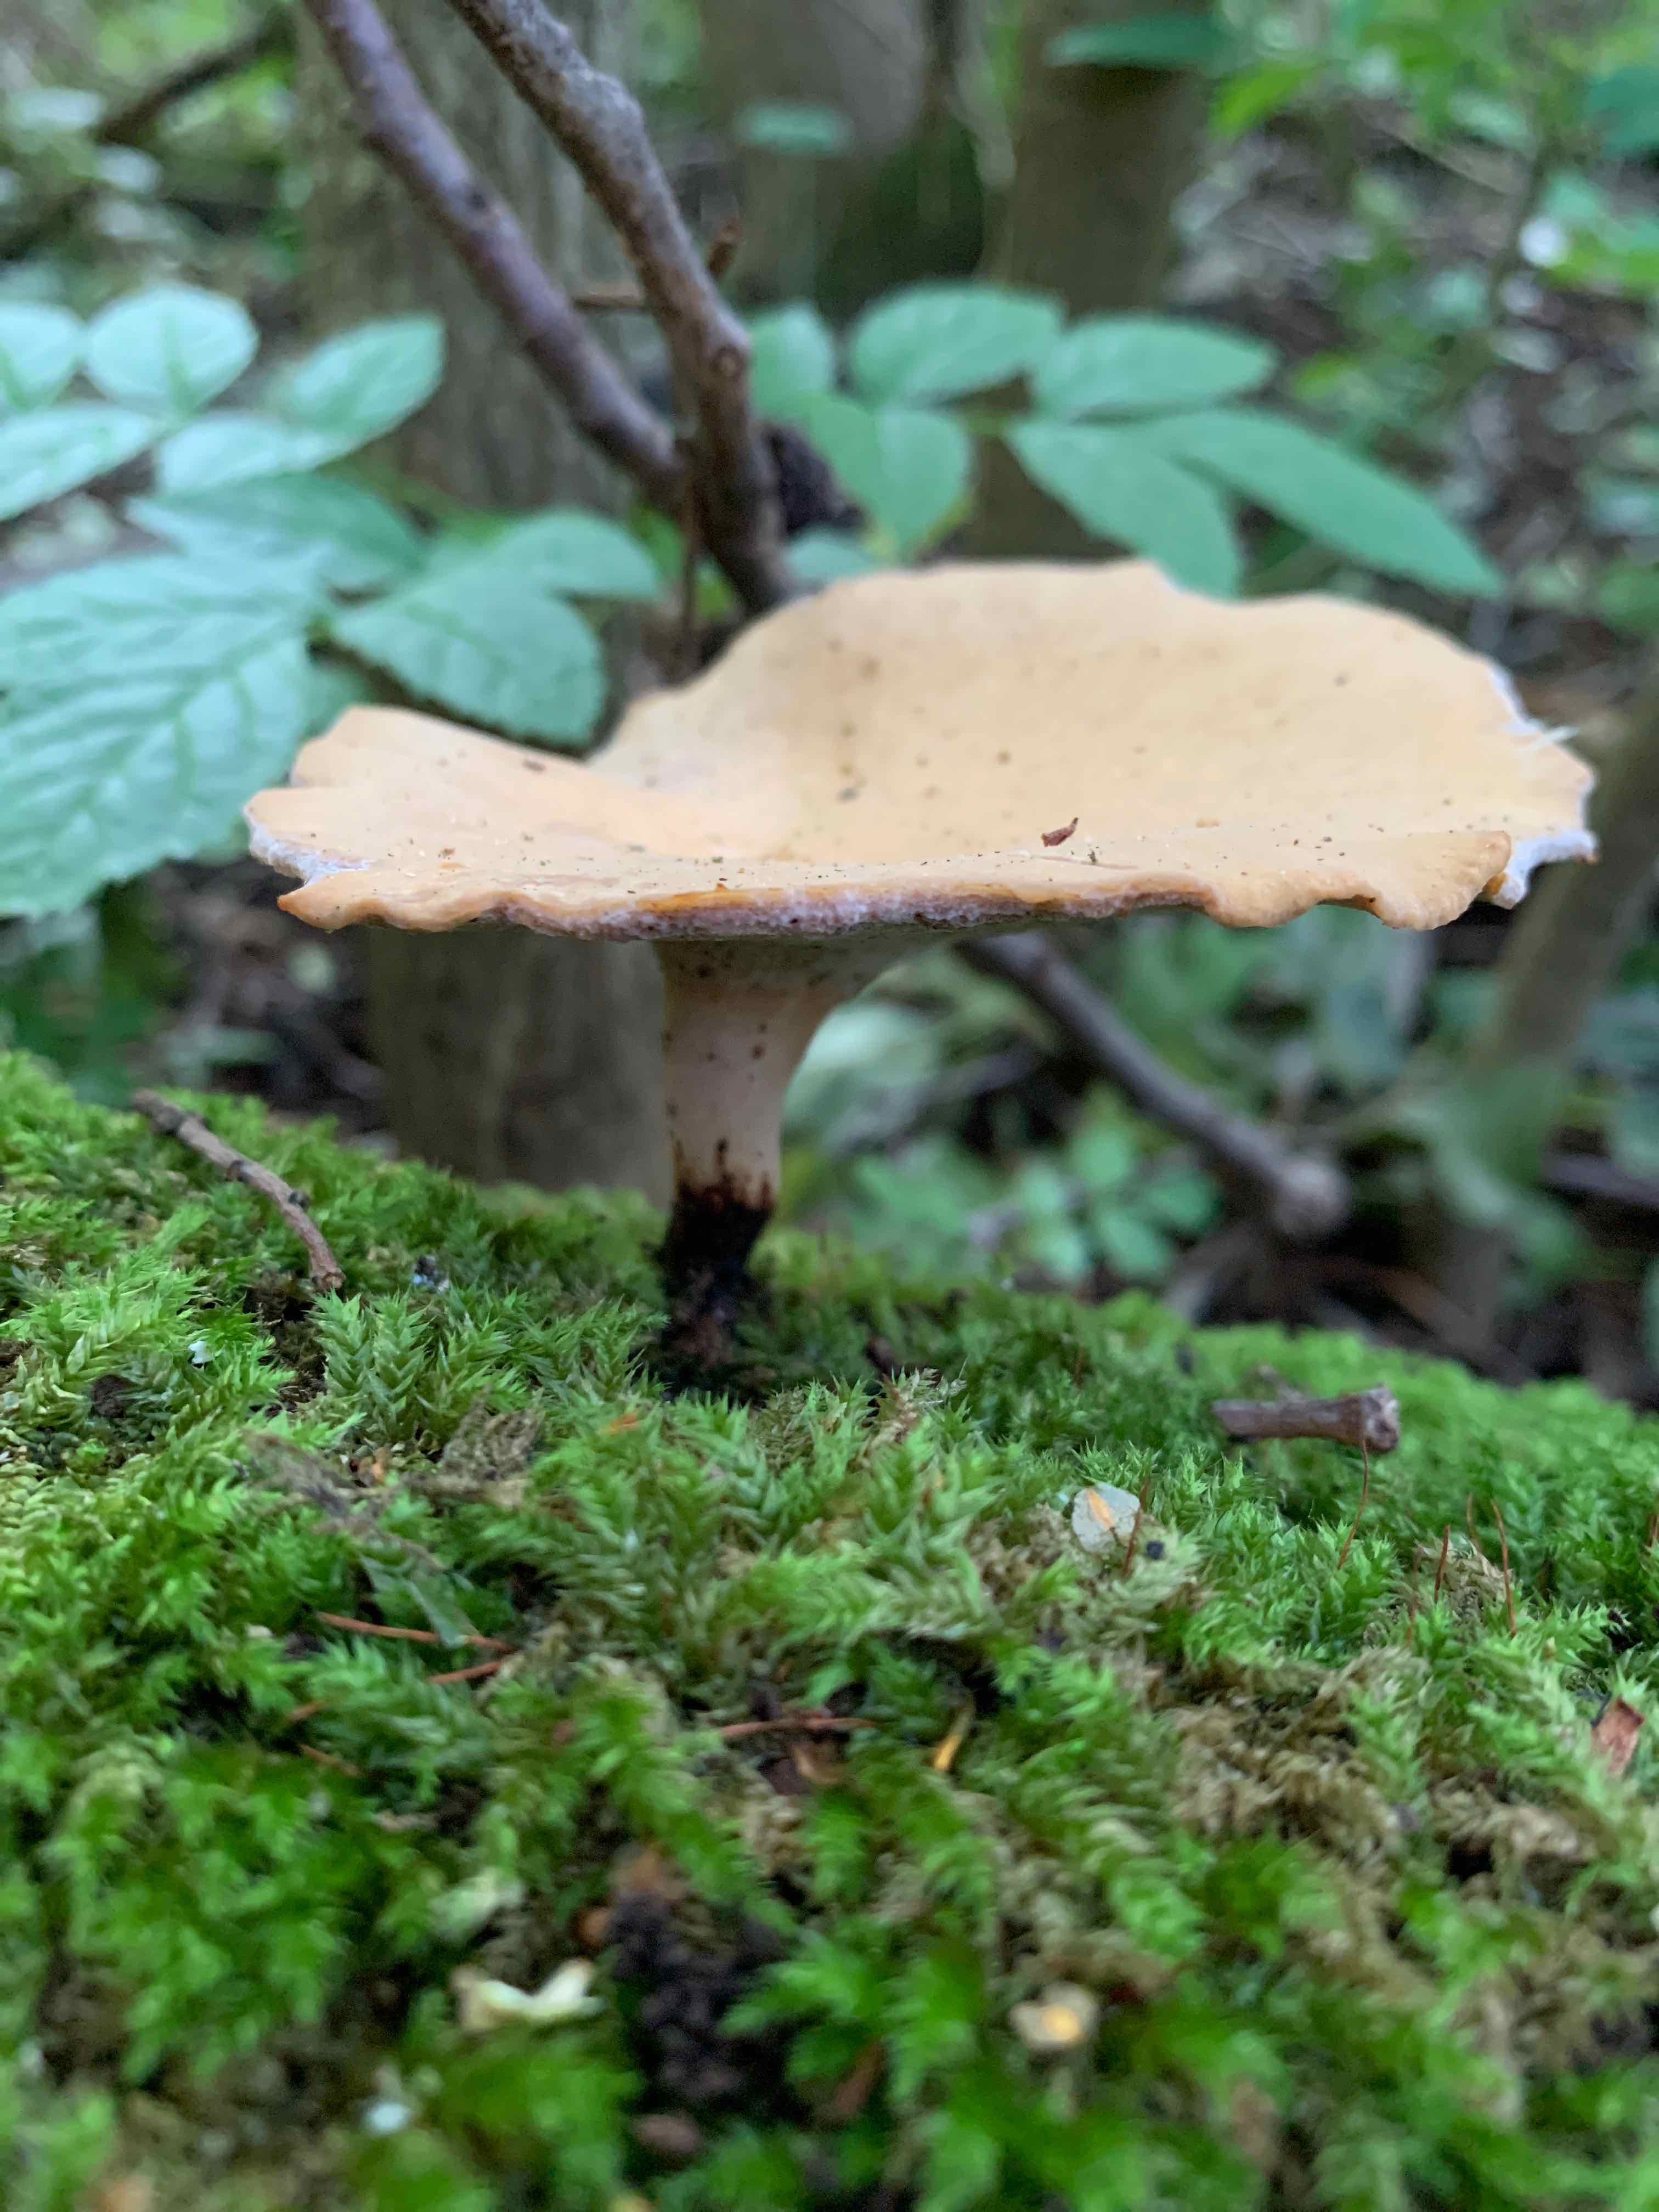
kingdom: Fungi
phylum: Basidiomycota
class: Agaricomycetes
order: Polyporales
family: Polyporaceae
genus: Cerioporus
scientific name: Cerioporus varius
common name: foranderlig stilkporesvamp
